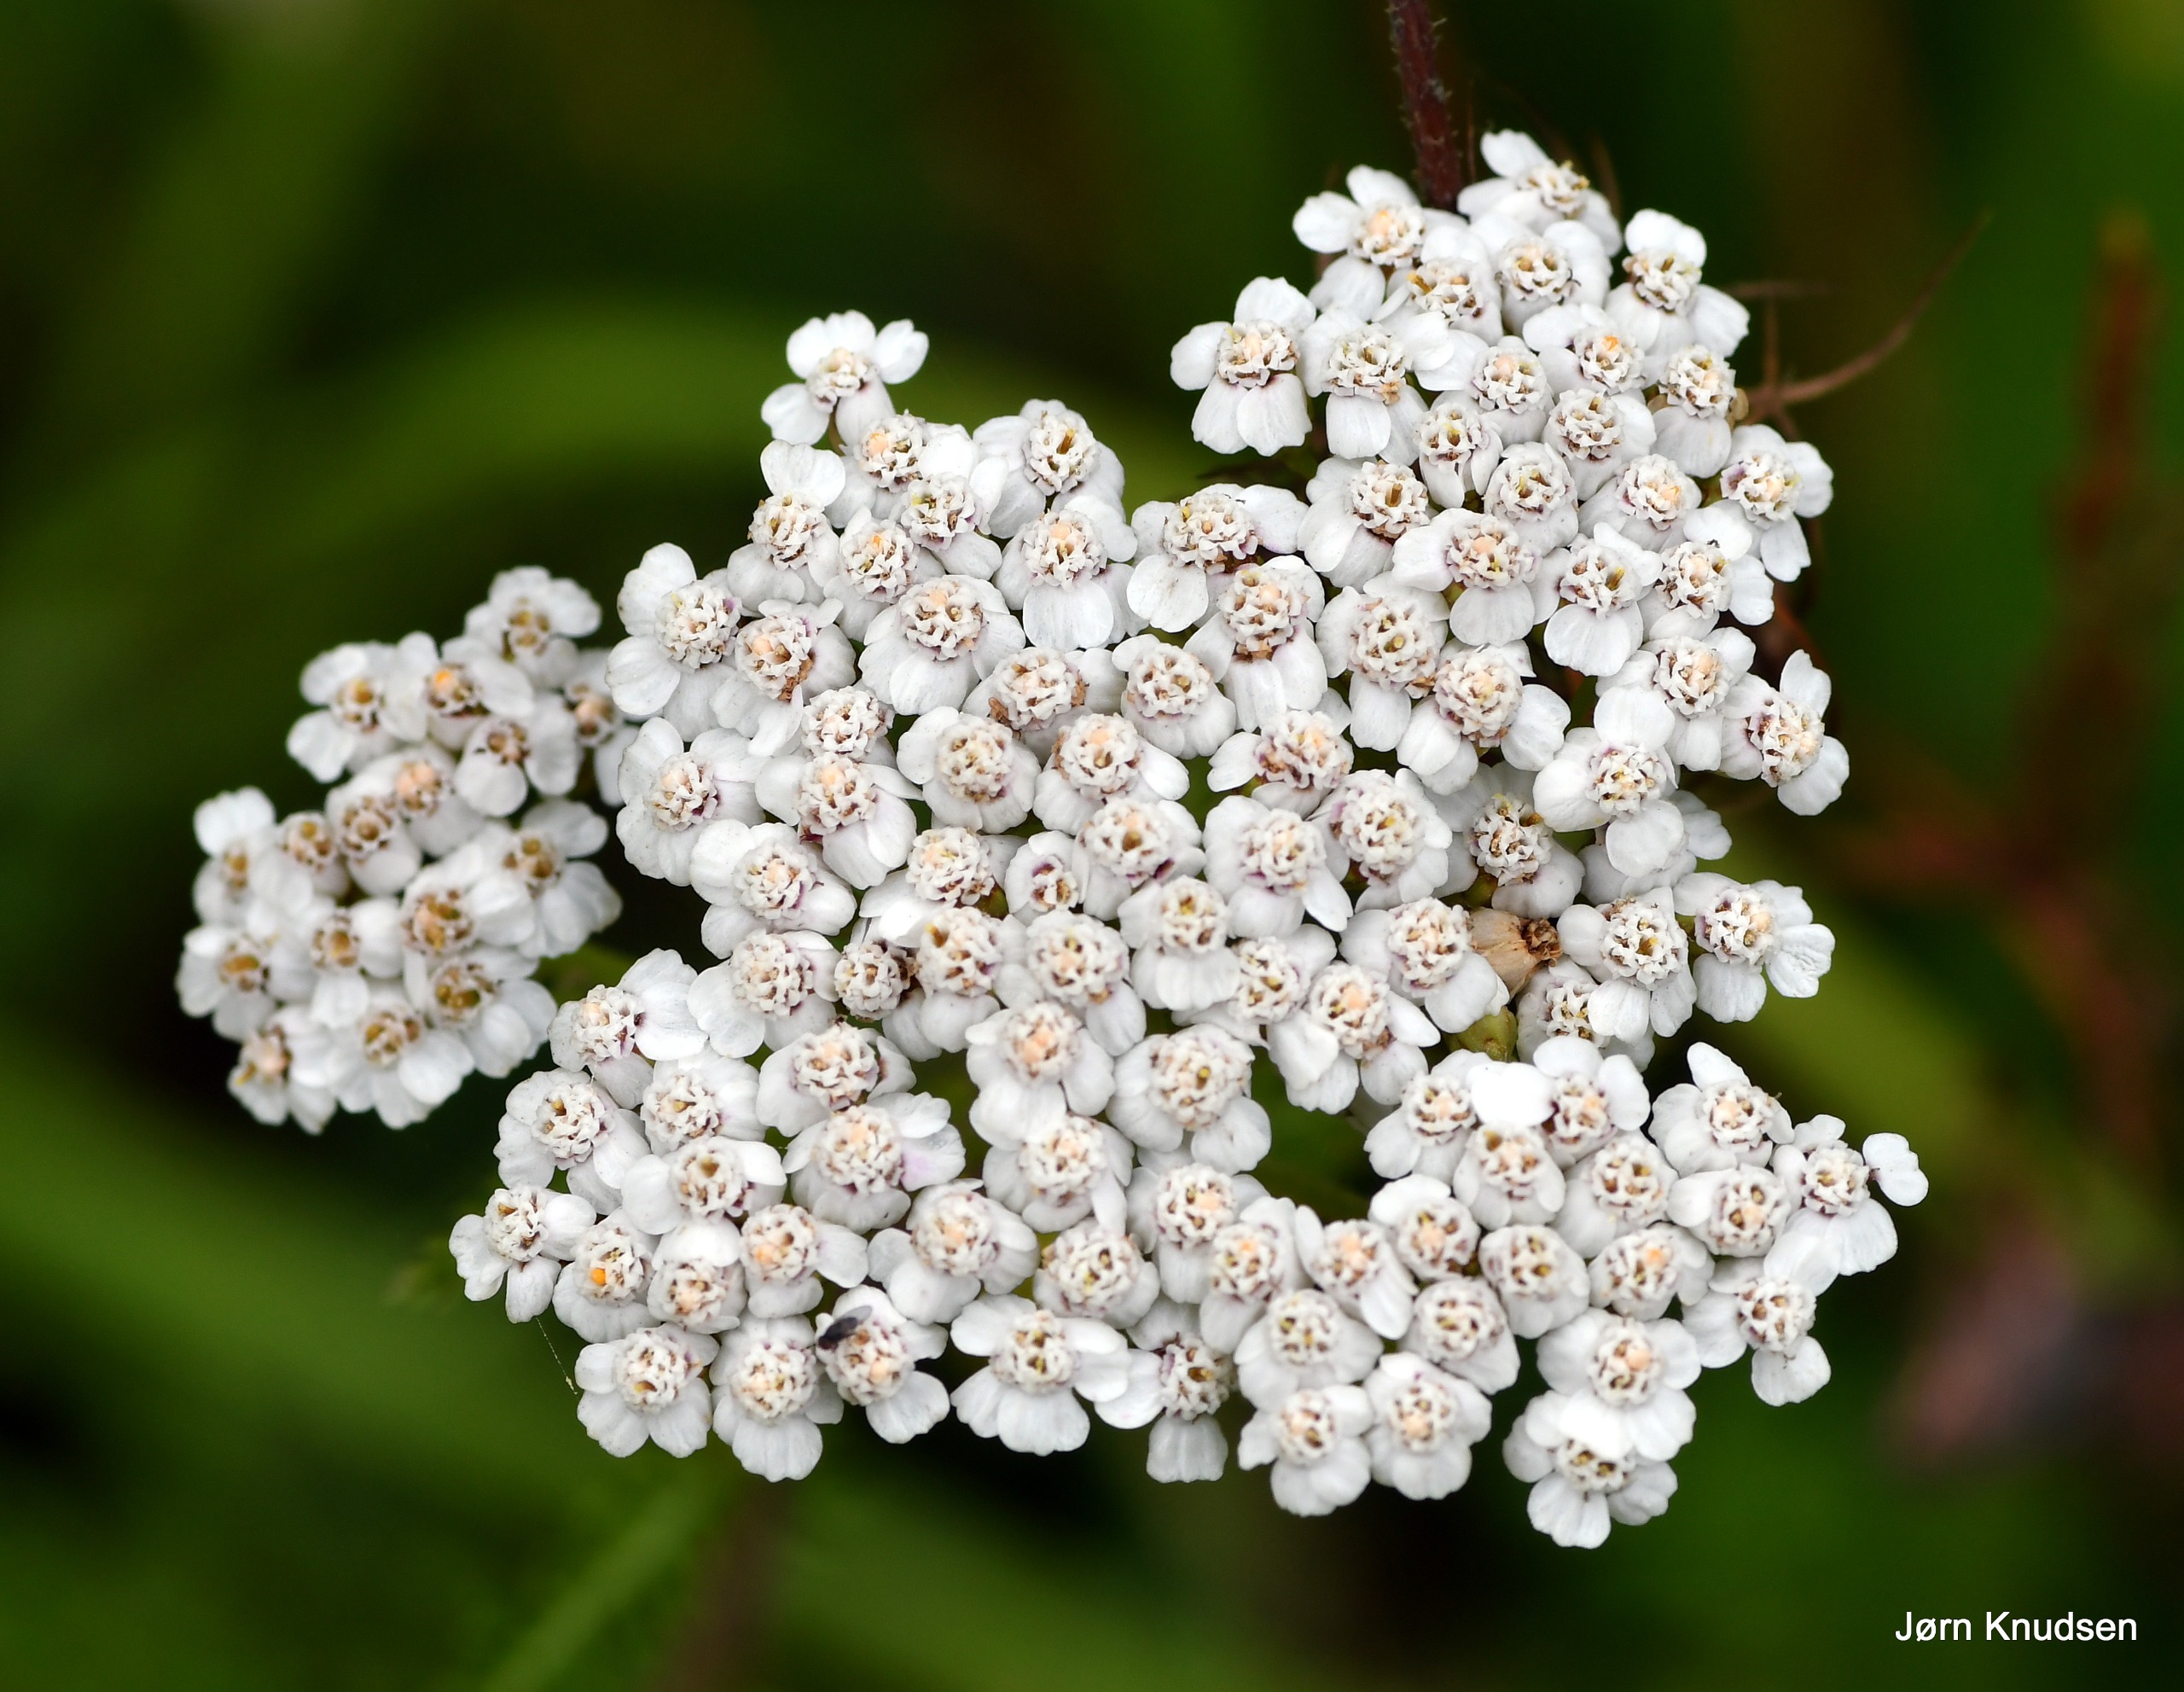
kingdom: Plantae
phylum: Tracheophyta
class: Magnoliopsida
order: Asterales
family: Asteraceae
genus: Achillea
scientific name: Achillea millefolium
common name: Almindelig røllike
